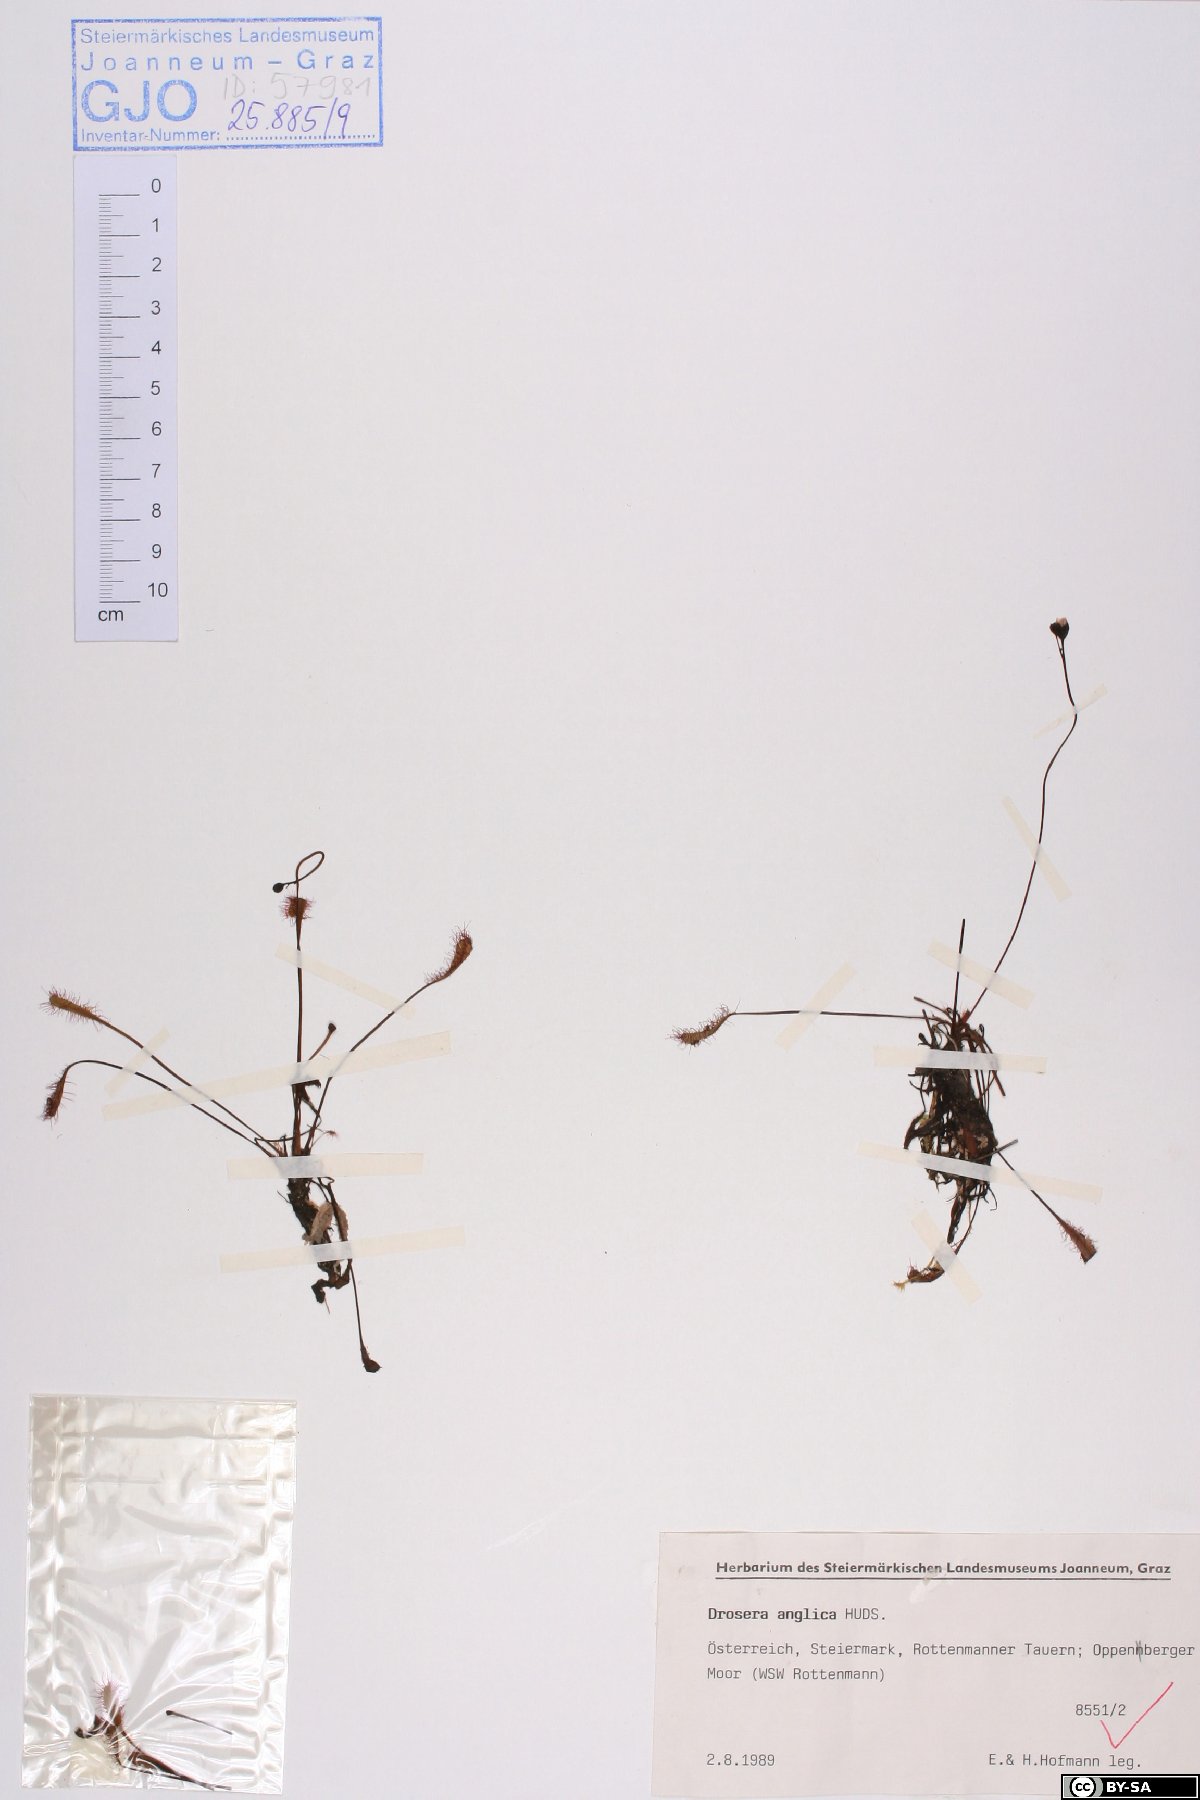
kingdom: Plantae
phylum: Tracheophyta
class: Magnoliopsida
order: Caryophyllales
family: Droseraceae
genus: Drosera
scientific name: Drosera anglica
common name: Great sundew
